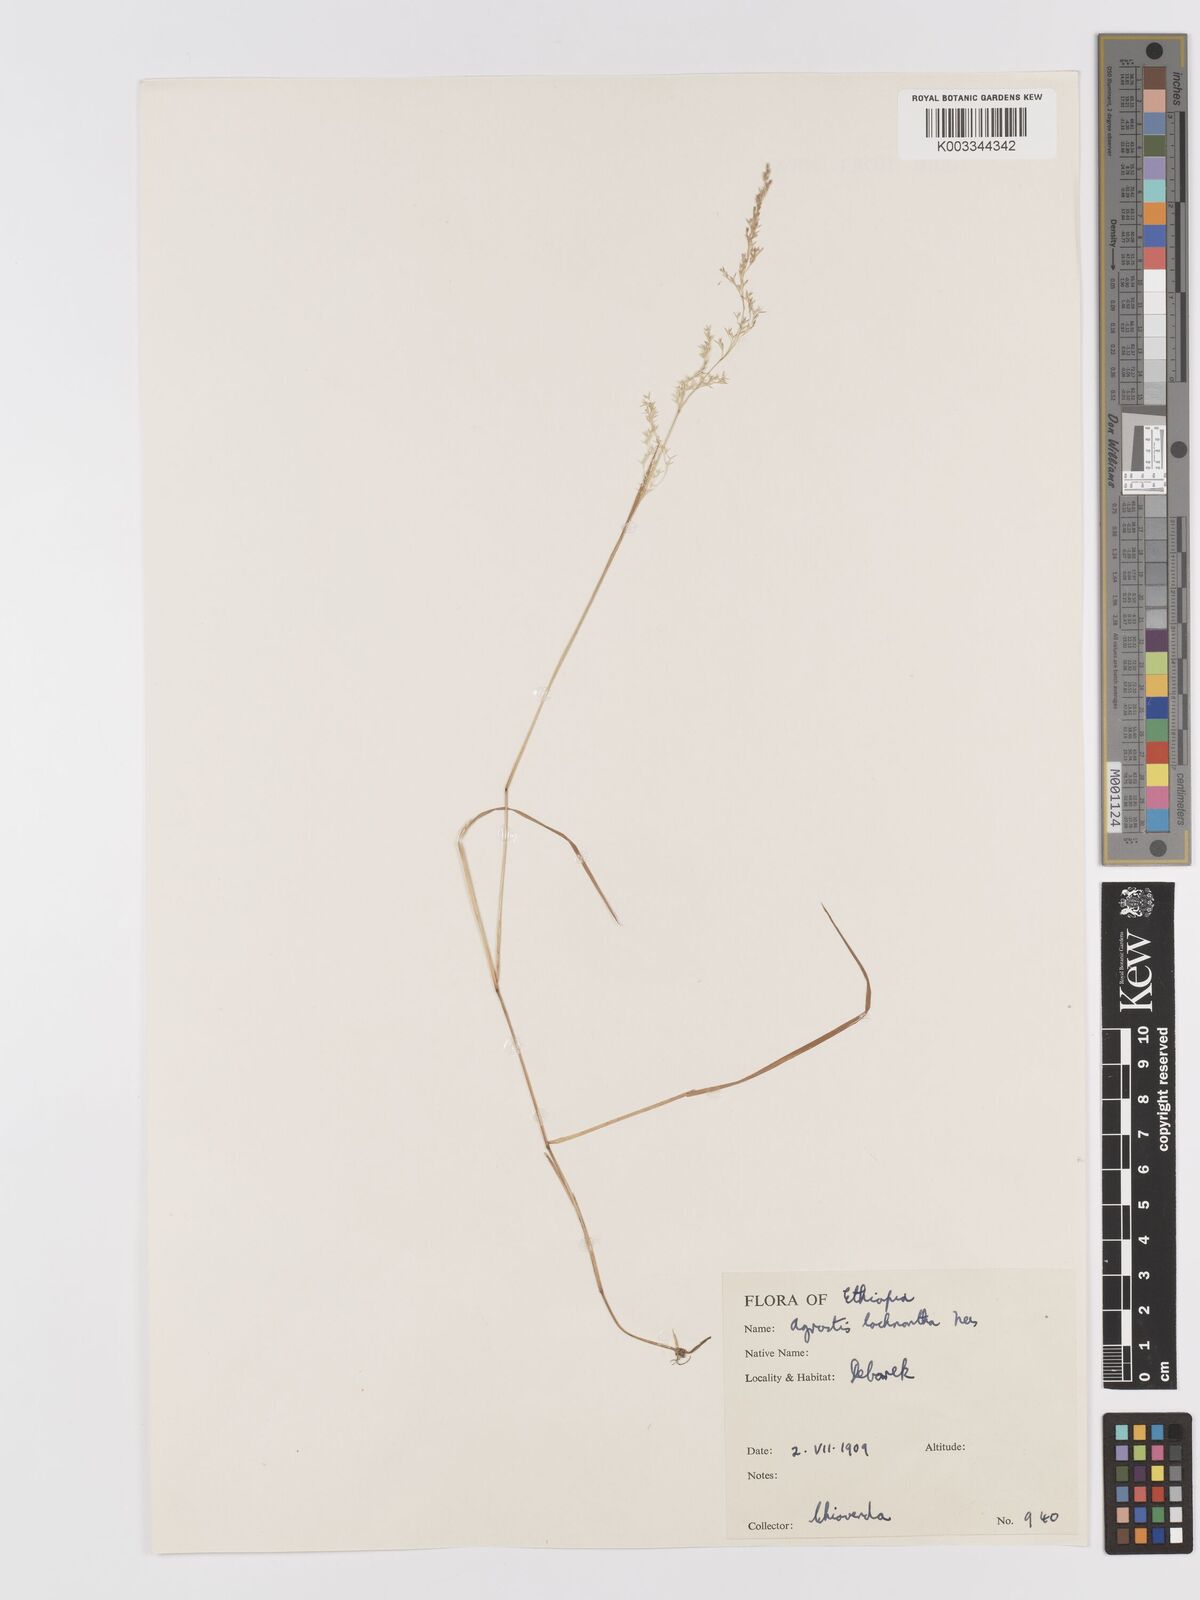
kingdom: Plantae
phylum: Tracheophyta
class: Liliopsida
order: Poales
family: Poaceae
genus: Lachnagrostis
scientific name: Lachnagrostis lachnantha
